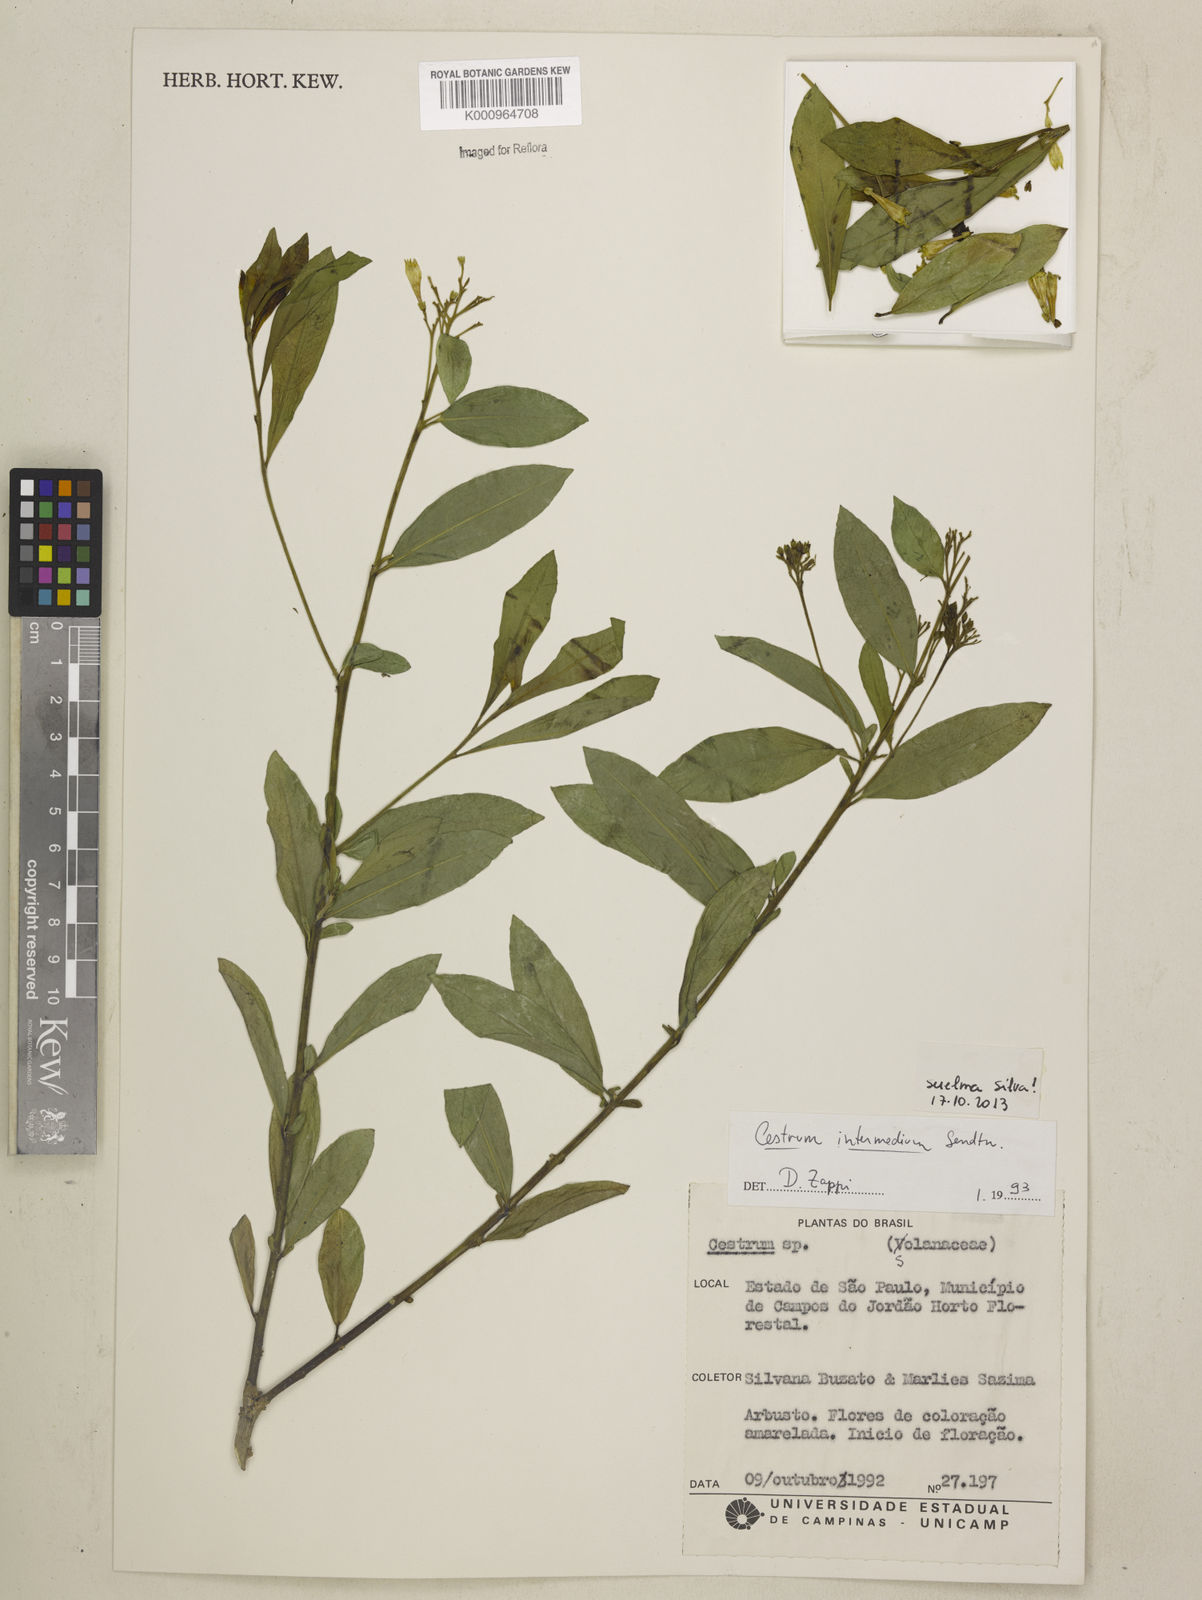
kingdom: Plantae
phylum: Tracheophyta
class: Magnoliopsida
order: Solanales
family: Solanaceae
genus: Cestrum
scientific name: Cestrum intermedium
